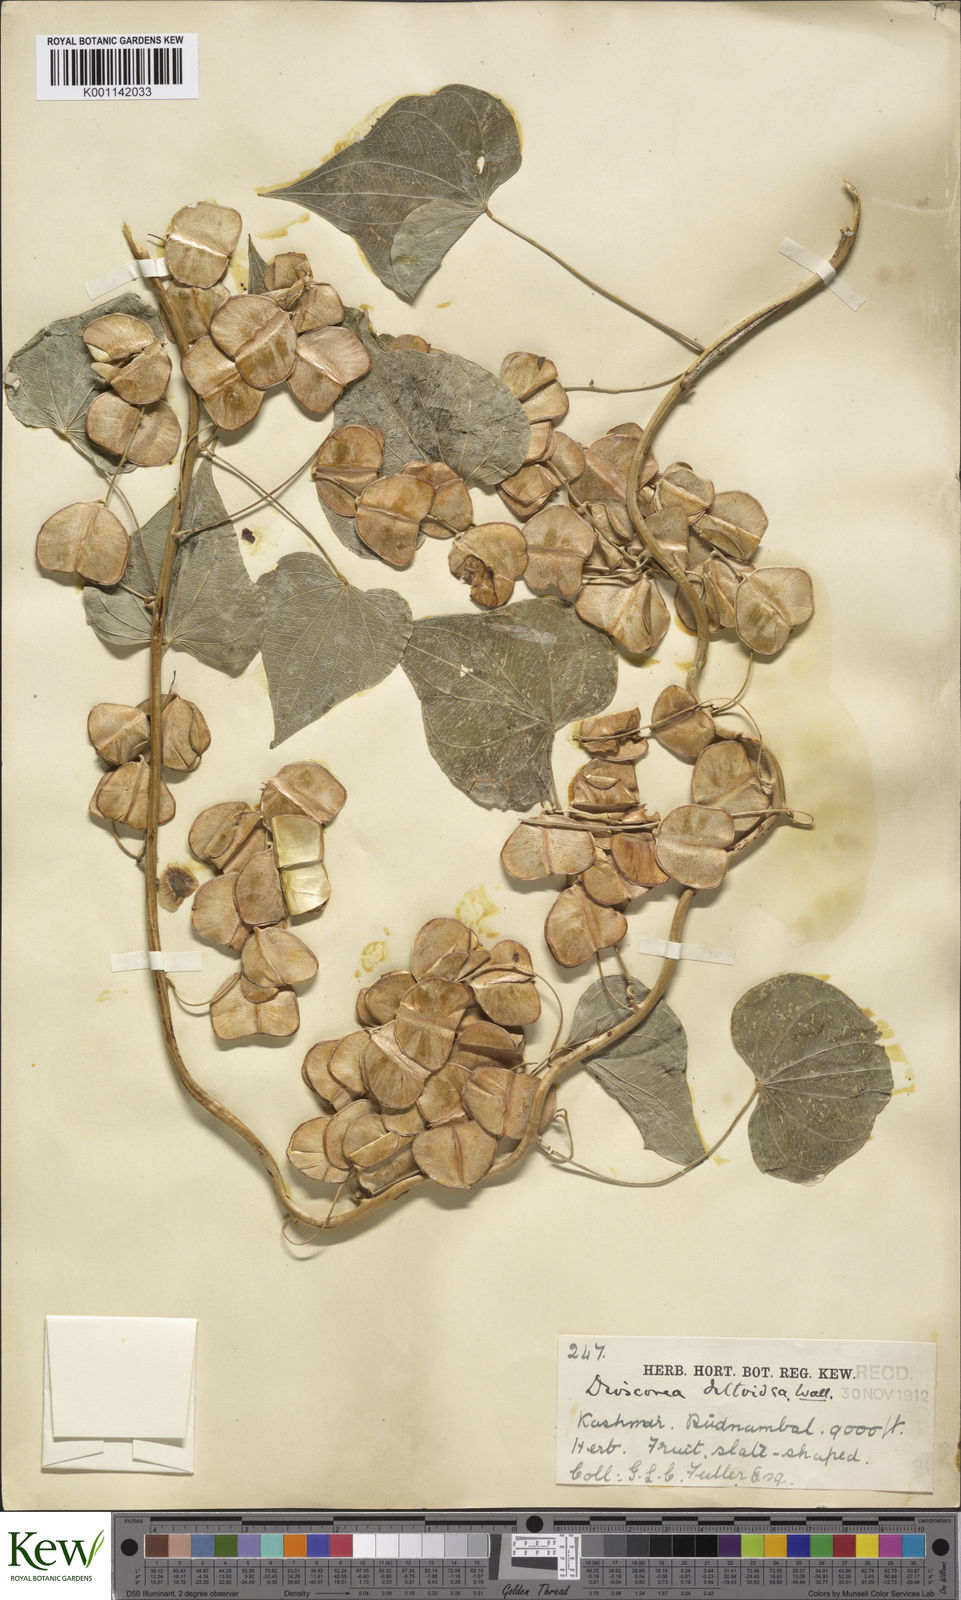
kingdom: Plantae
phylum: Tracheophyta
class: Liliopsida
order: Dioscoreales
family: Dioscoreaceae
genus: Dioscorea
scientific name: Dioscorea deltoidea
